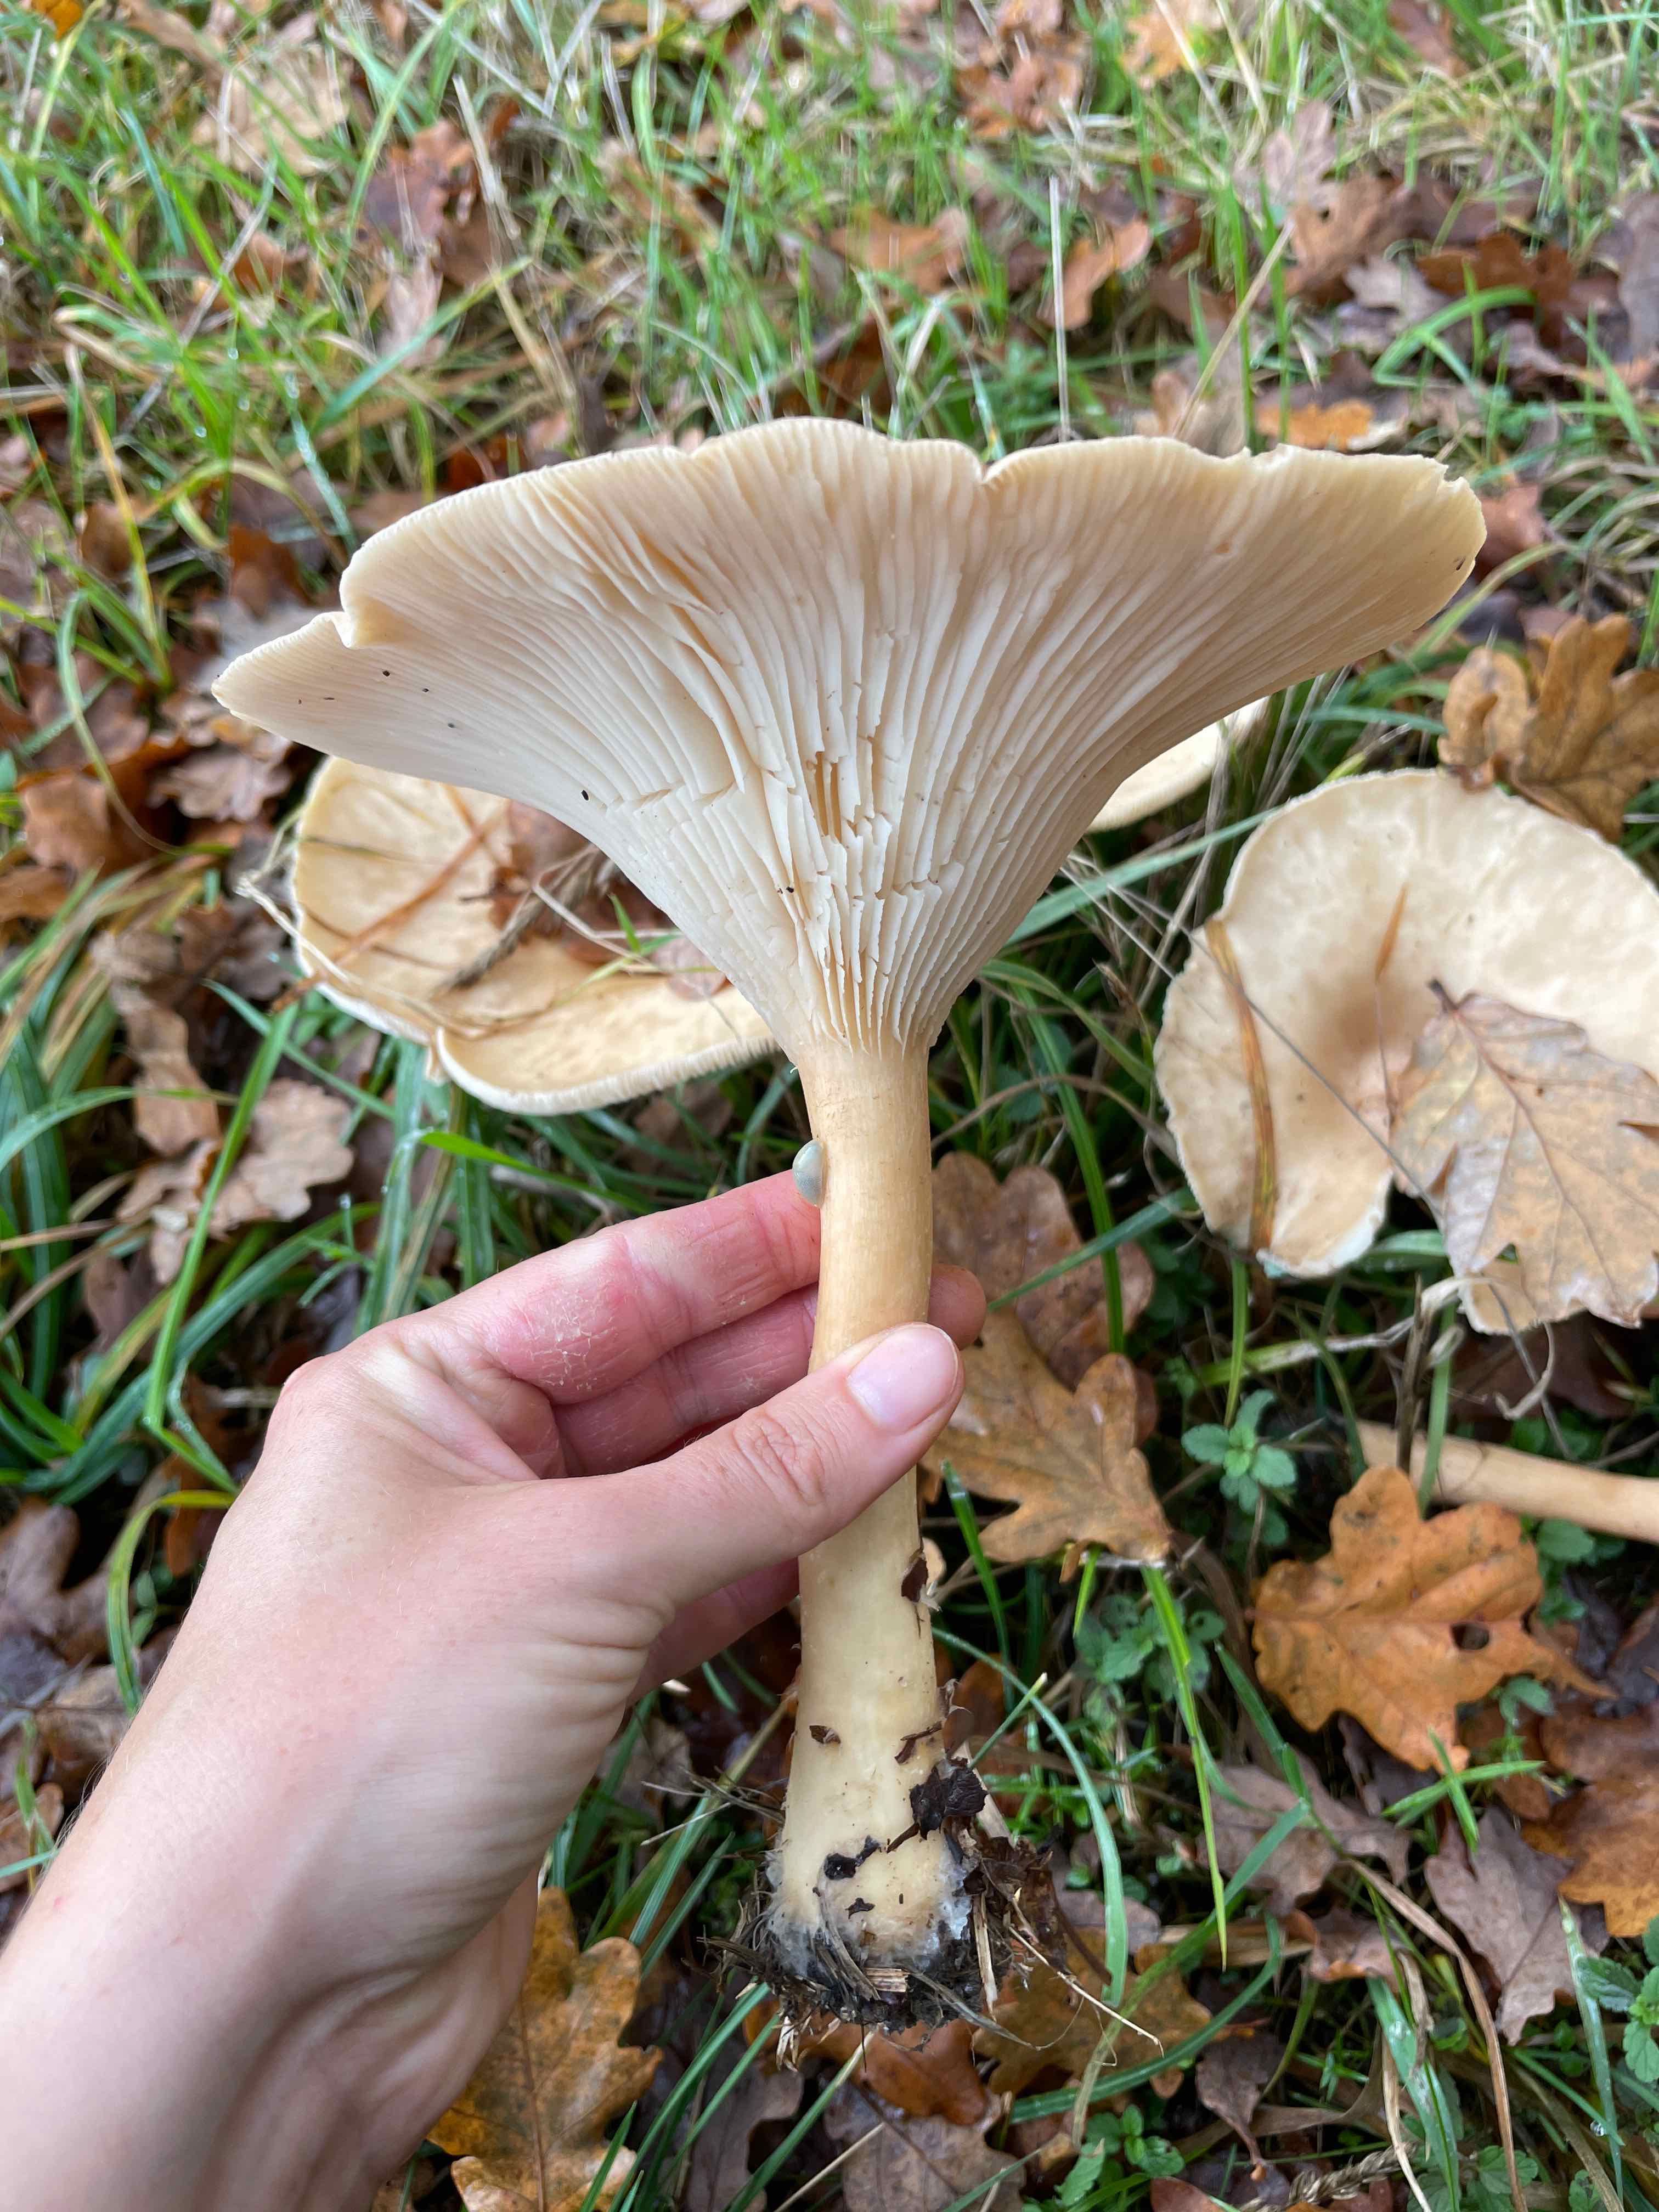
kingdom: Fungi
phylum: Basidiomycota
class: Agaricomycetes
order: Agaricales
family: Tricholomataceae
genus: Infundibulicybe
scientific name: Infundibulicybe geotropa
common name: stor tragthat
